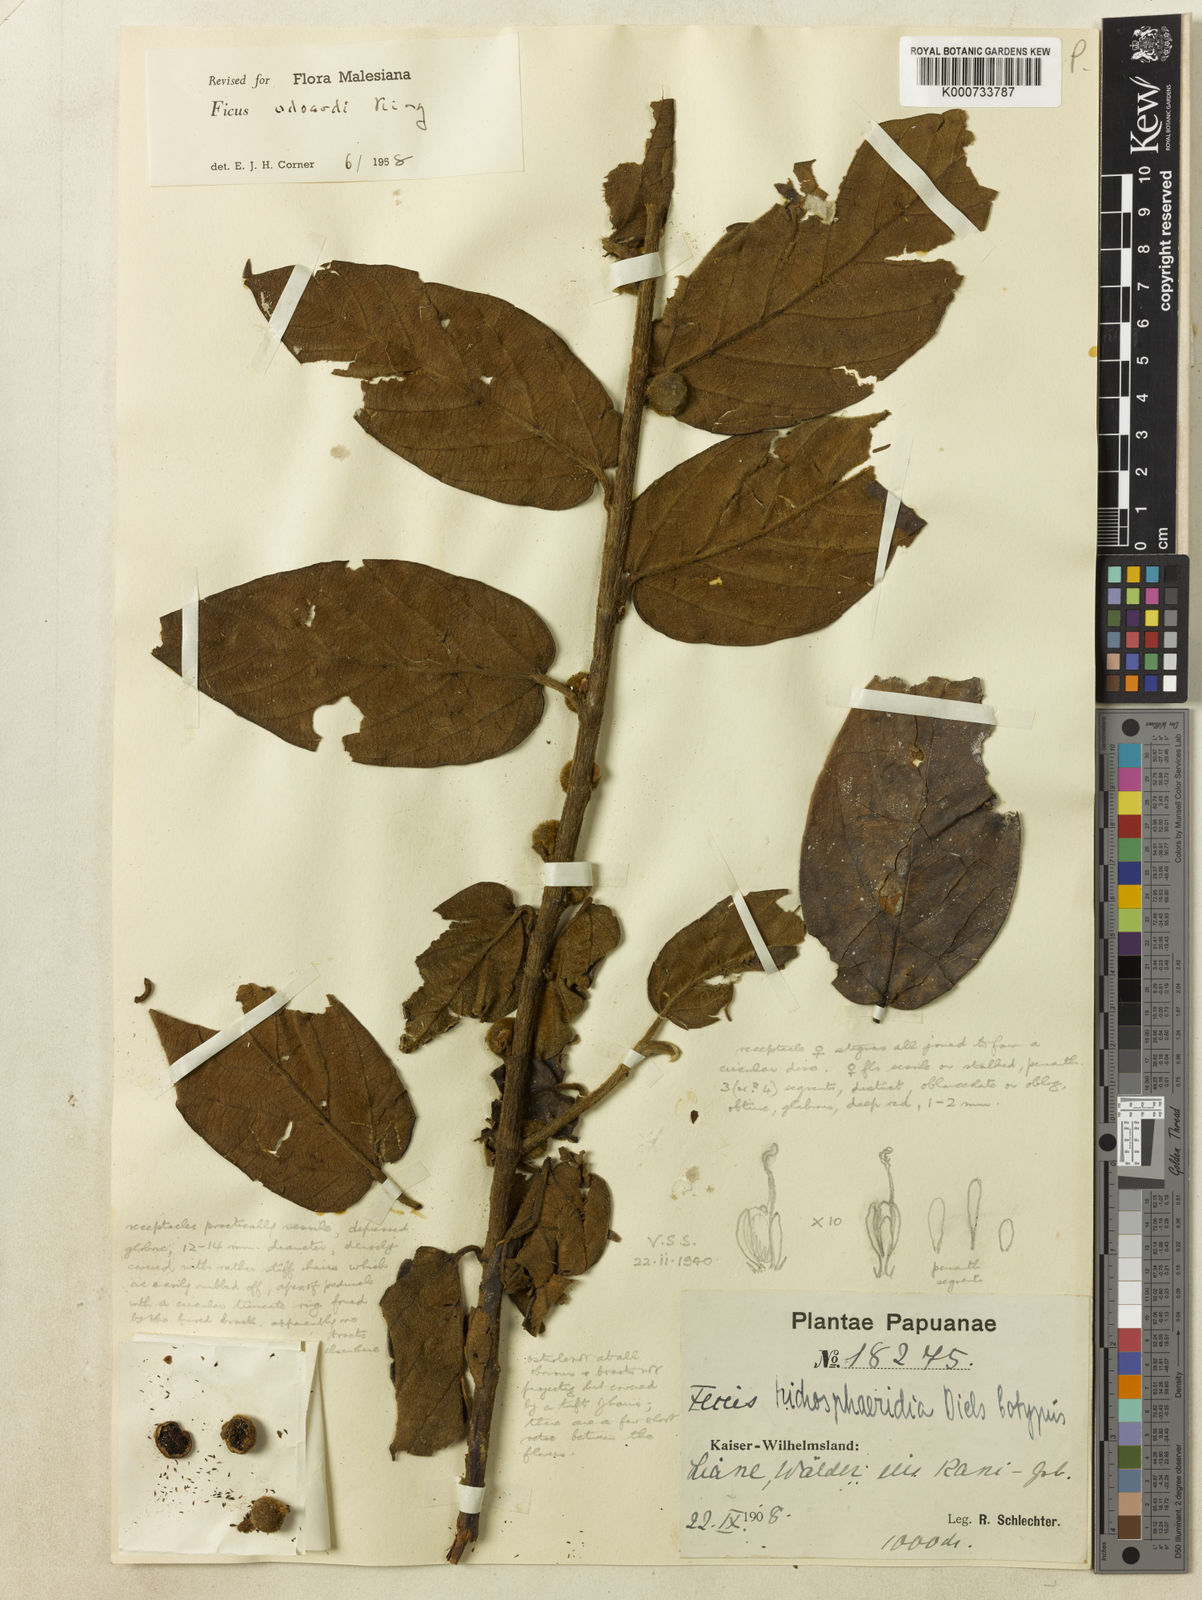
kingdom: Plantae
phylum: Tracheophyta
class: Magnoliopsida
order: Rosales
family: Moraceae
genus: Ficus
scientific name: Ficus odoardi
